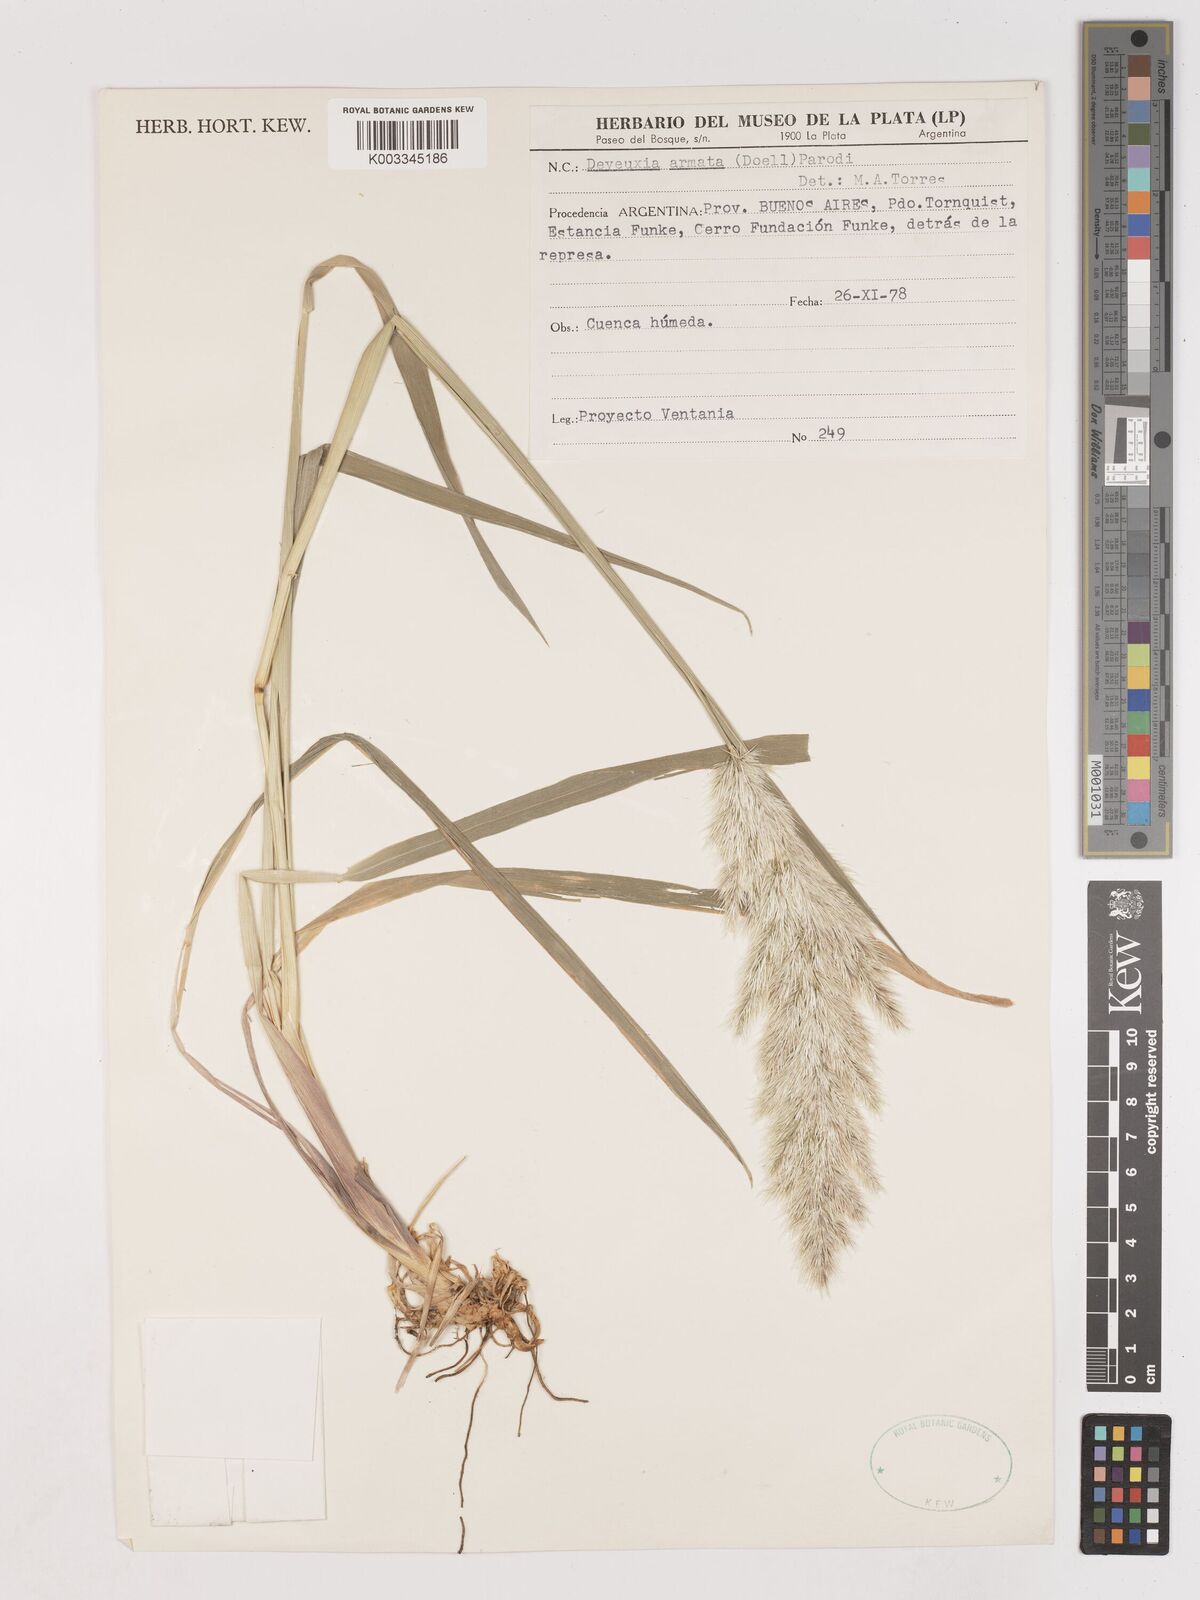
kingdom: Plantae
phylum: Tracheophyta
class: Liliopsida
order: Poales
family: Poaceae
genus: Cinnagrostis
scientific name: Cinnagrostis alba
